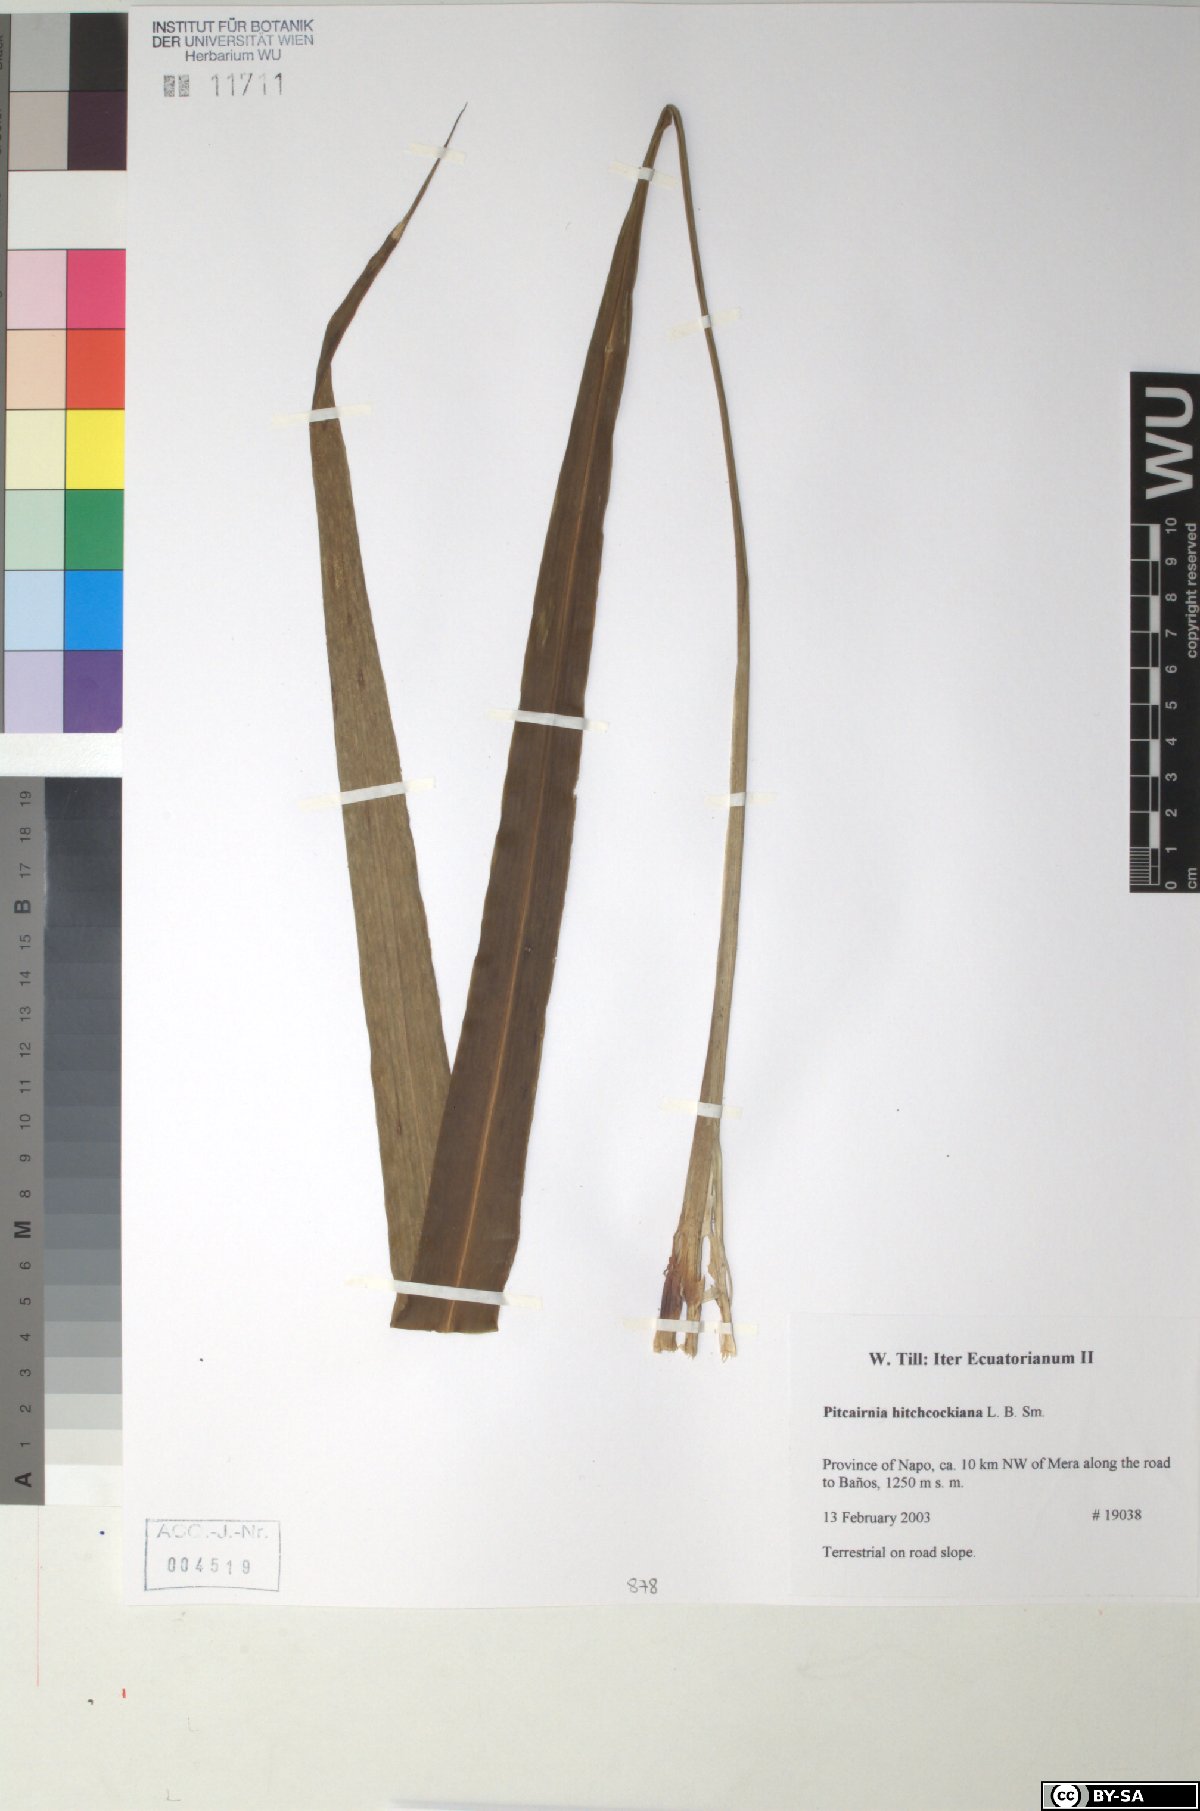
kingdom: Plantae
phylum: Tracheophyta
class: Liliopsida
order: Poales
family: Bromeliaceae
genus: Pitcairnia
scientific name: Pitcairnia hitchcockiana
